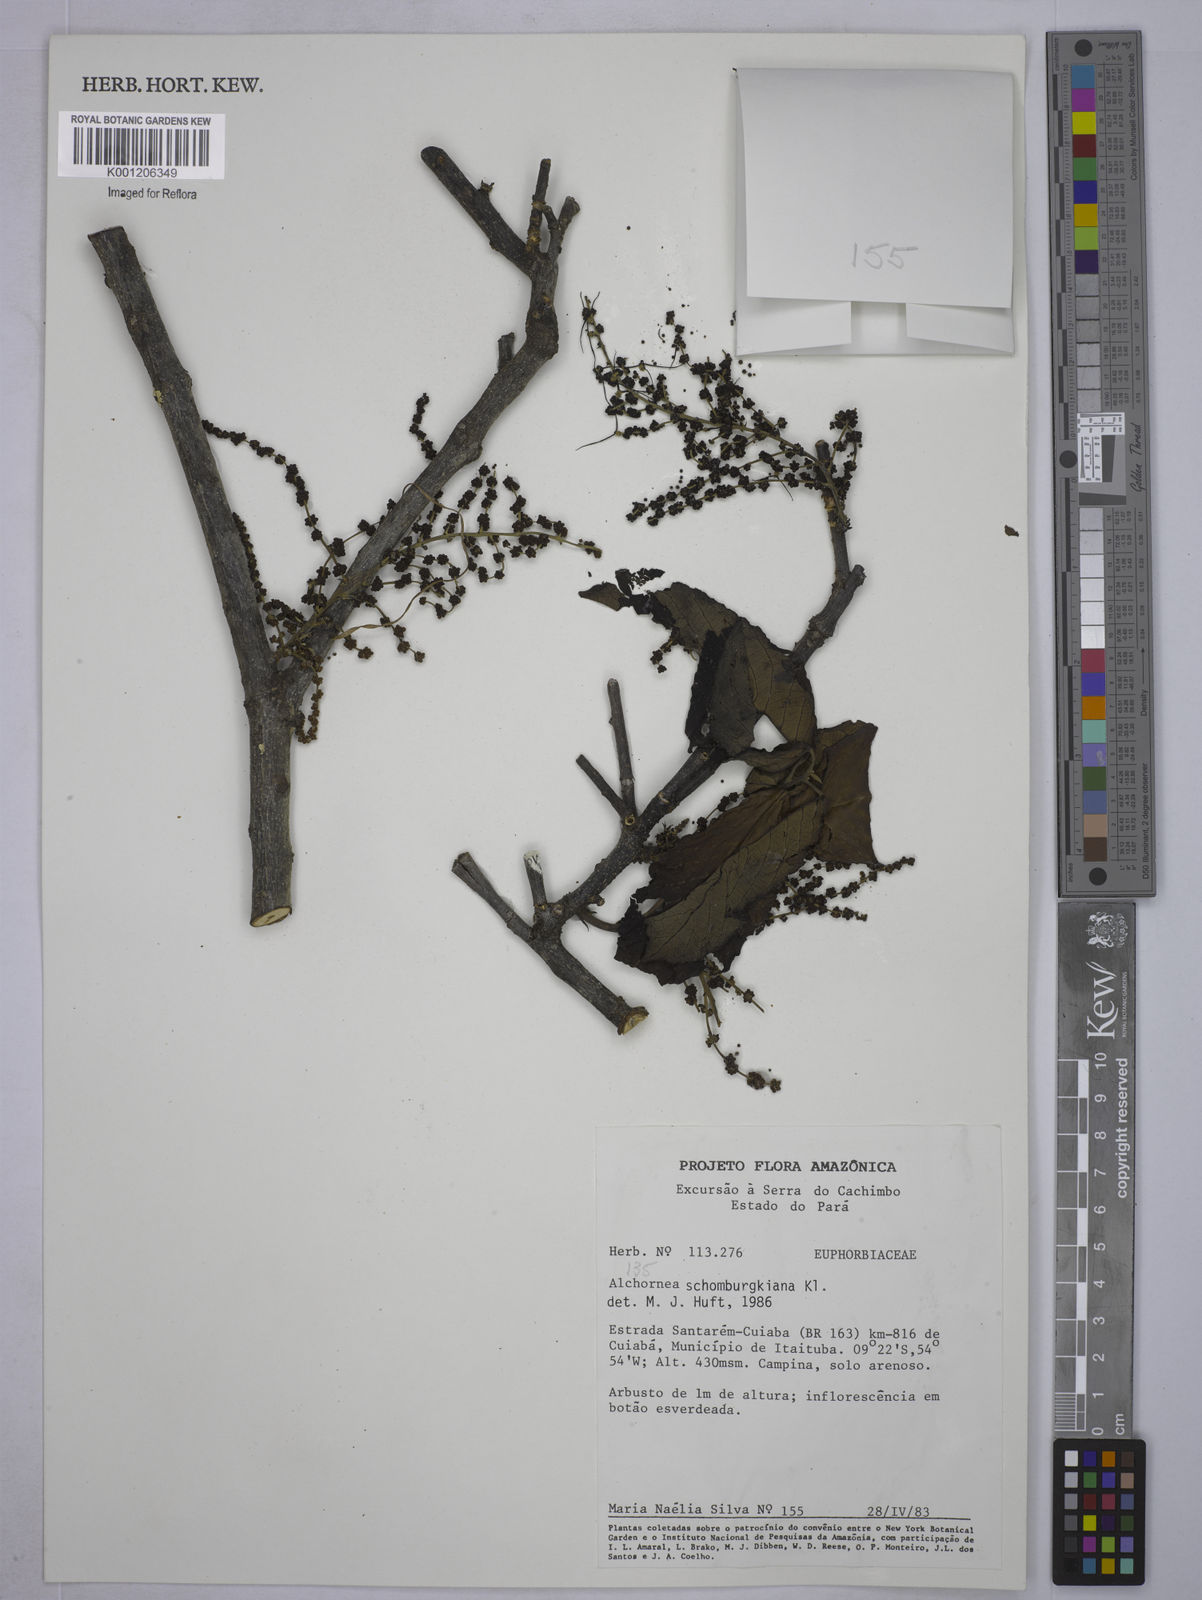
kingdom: Plantae
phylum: Tracheophyta
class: Magnoliopsida
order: Malpighiales
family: Euphorbiaceae
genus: Alchornea
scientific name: Alchornea discolor
